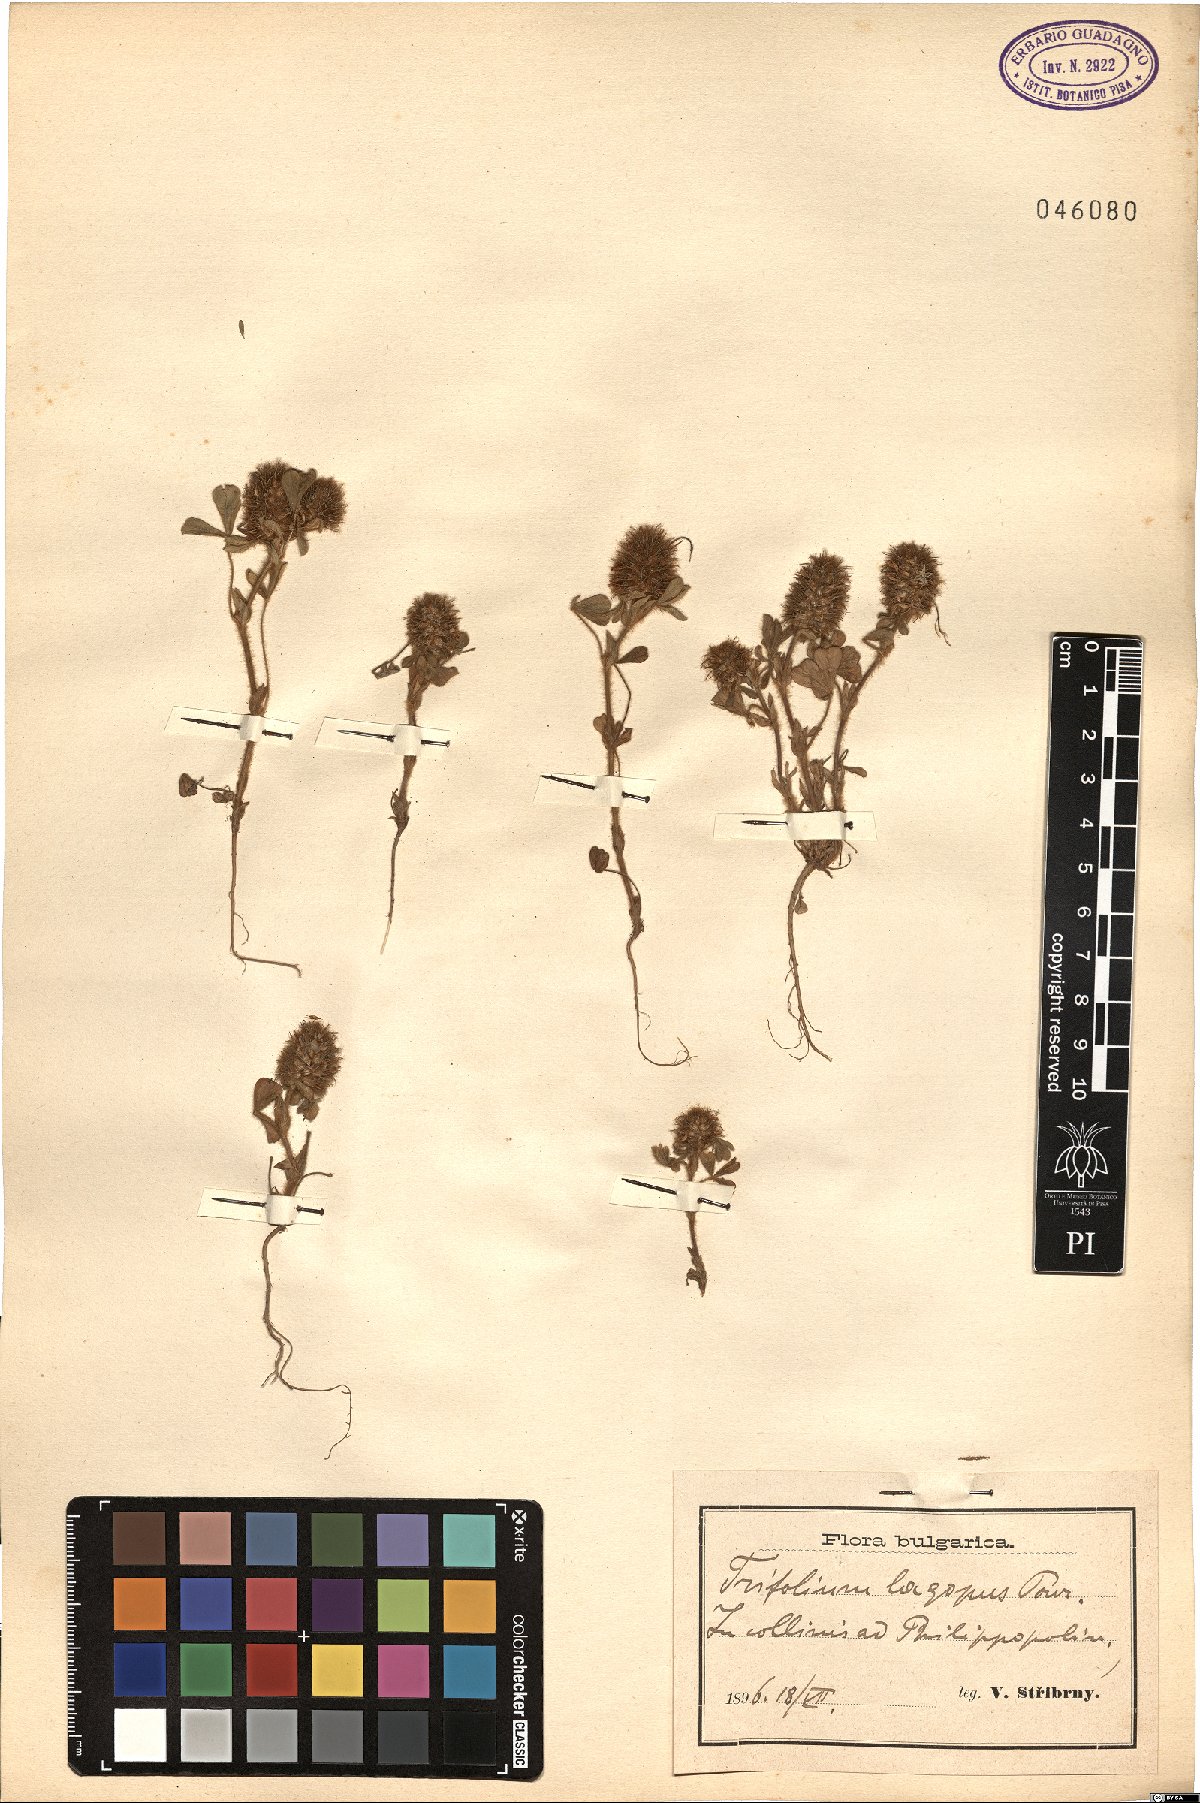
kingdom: Plantae
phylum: Tracheophyta
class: Magnoliopsida
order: Fabales
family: Fabaceae
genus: Trifolium
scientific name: Trifolium sylvaticum
